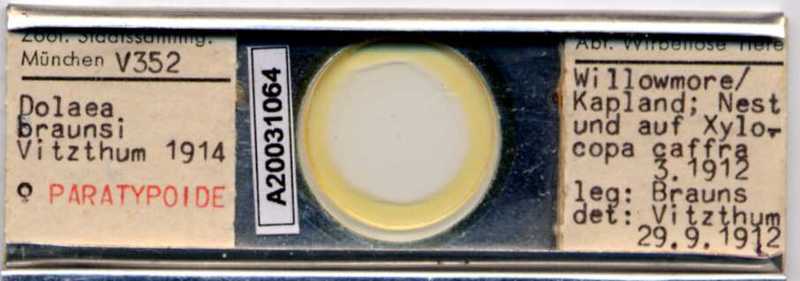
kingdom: Animalia
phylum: Arthropoda
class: Arachnida
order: Mesostigmata
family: Laelapidae
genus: Dinogamasus
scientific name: Dinogamasus
